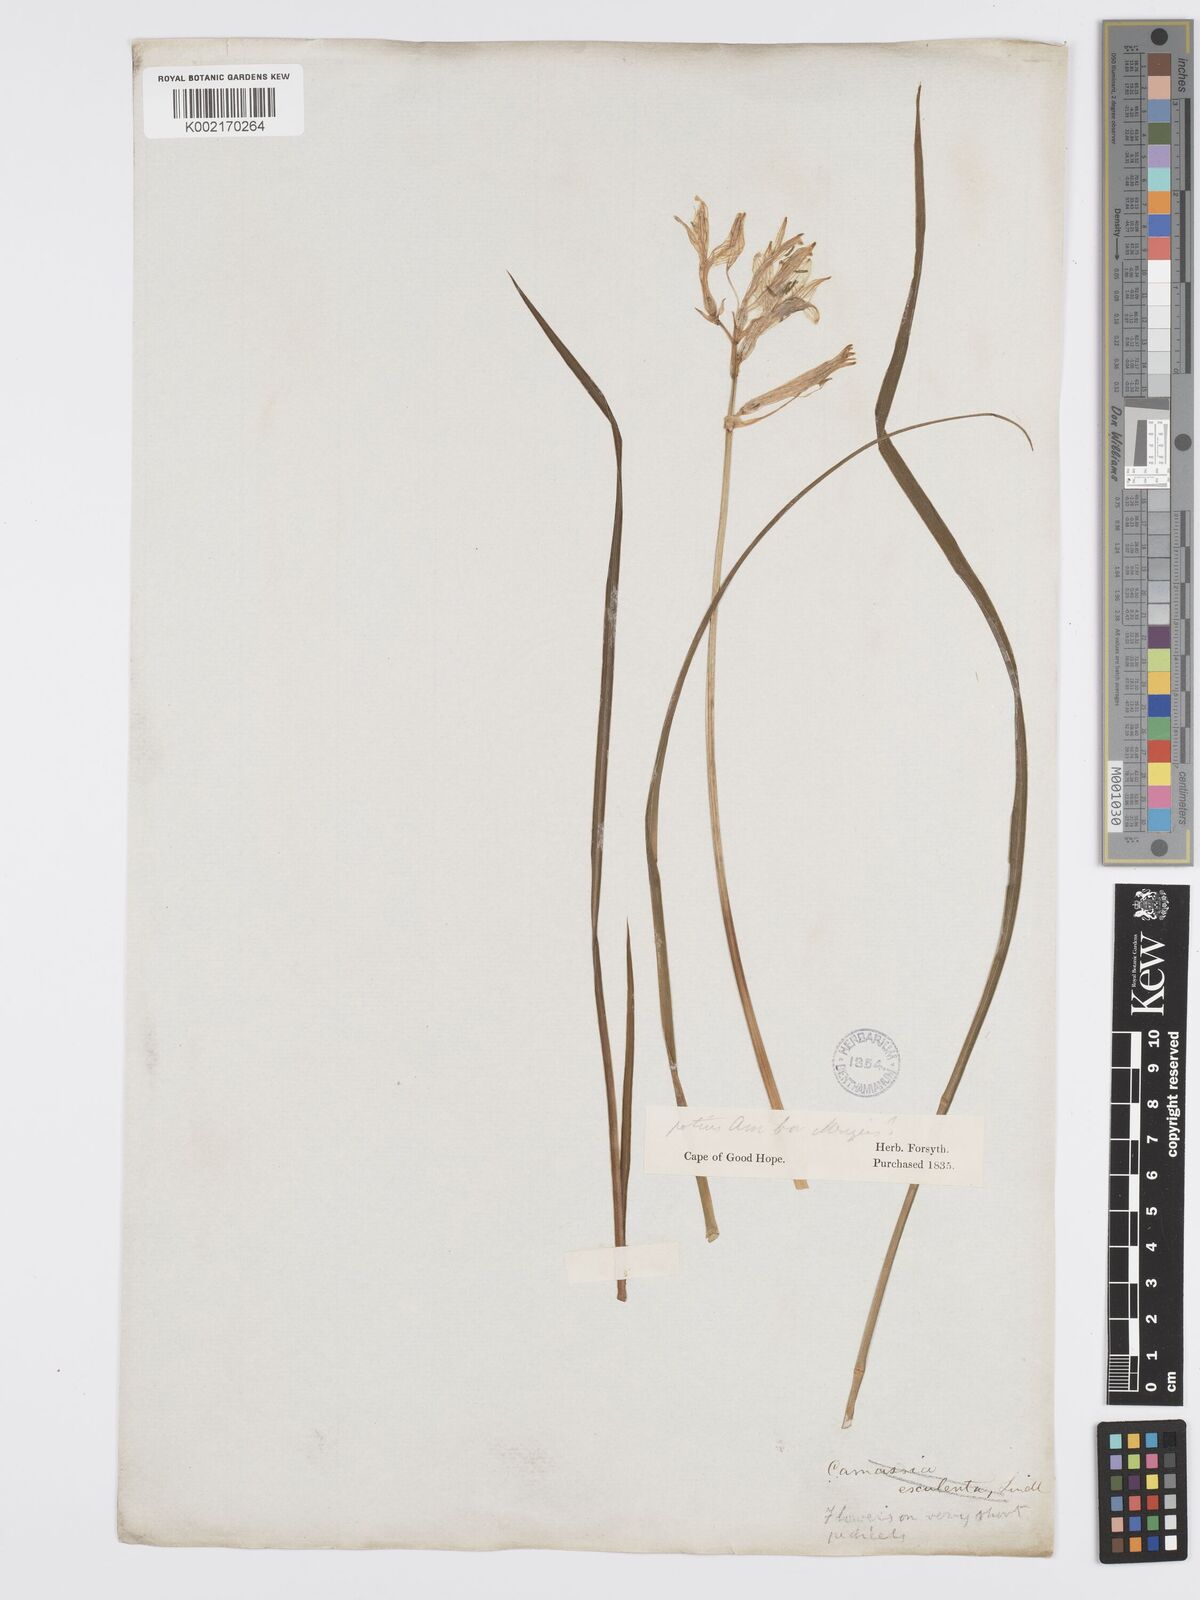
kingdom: Plantae
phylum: Tracheophyta
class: Liliopsida
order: Asparagales
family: Asparagaceae
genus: Camassia
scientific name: Camassia
